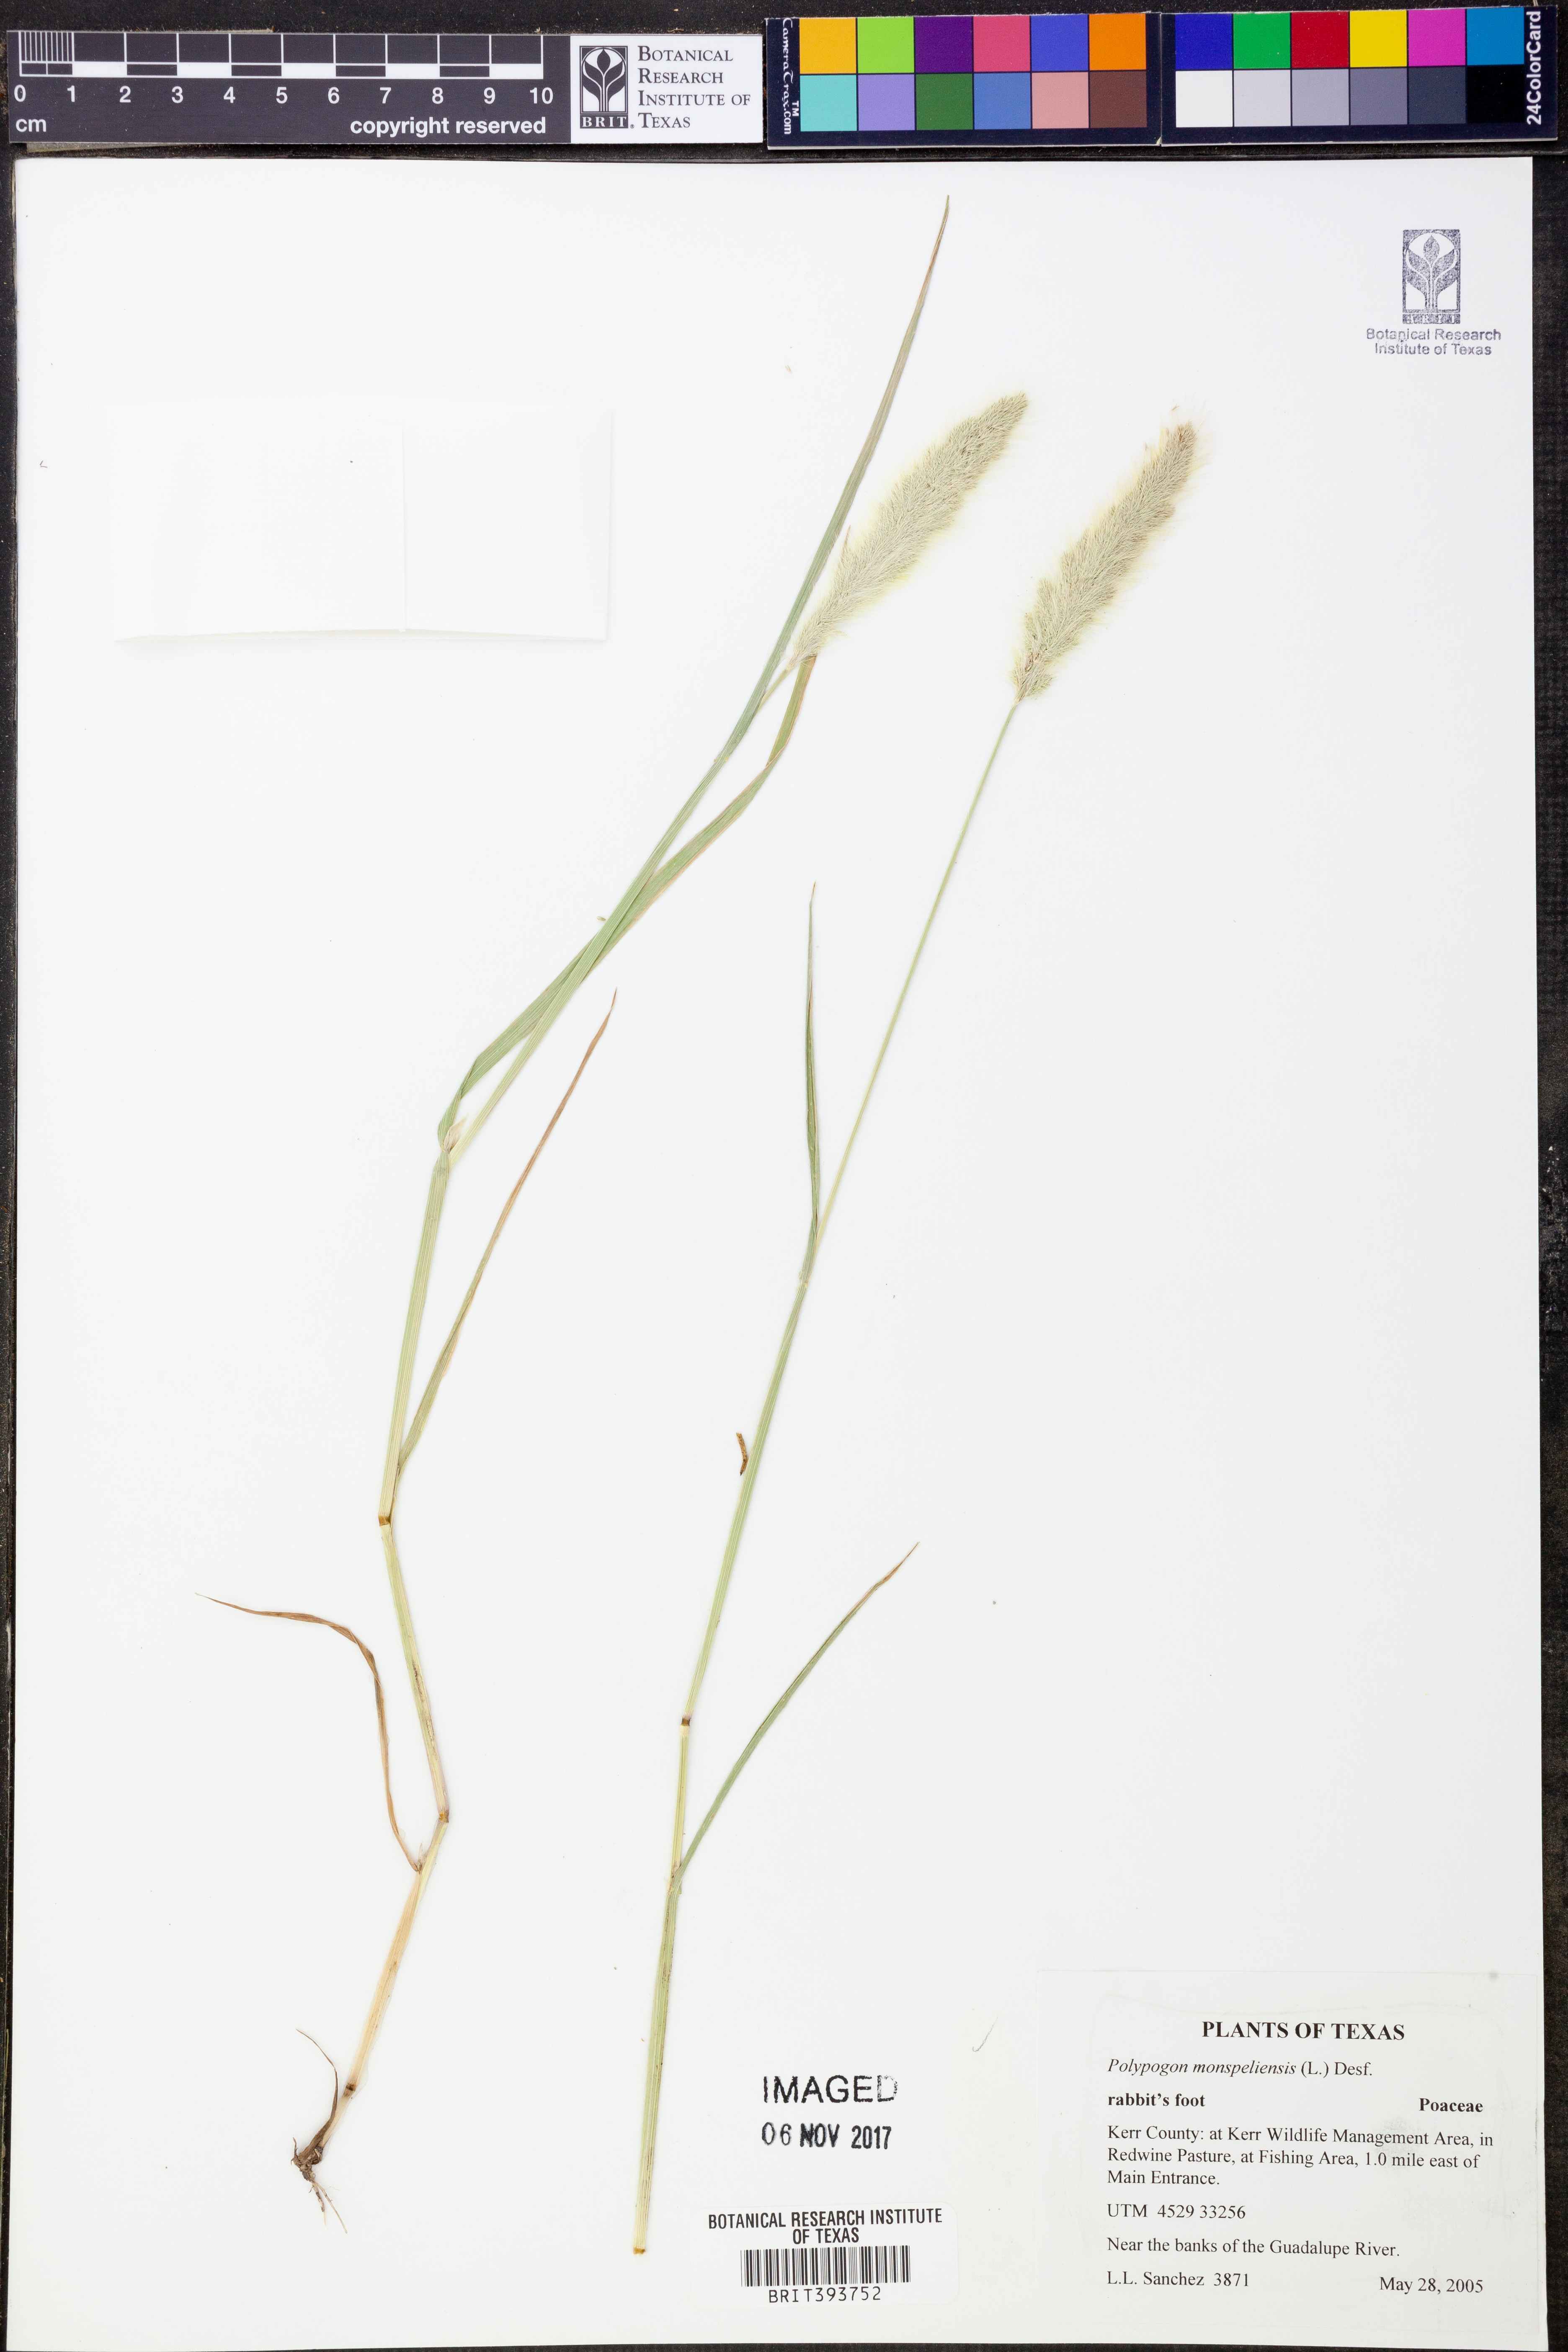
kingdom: Plantae
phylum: Tracheophyta
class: Liliopsida
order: Poales
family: Poaceae
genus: Polypogon
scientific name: Polypogon monspeliensis
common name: Annual rabbitsfoot grass
